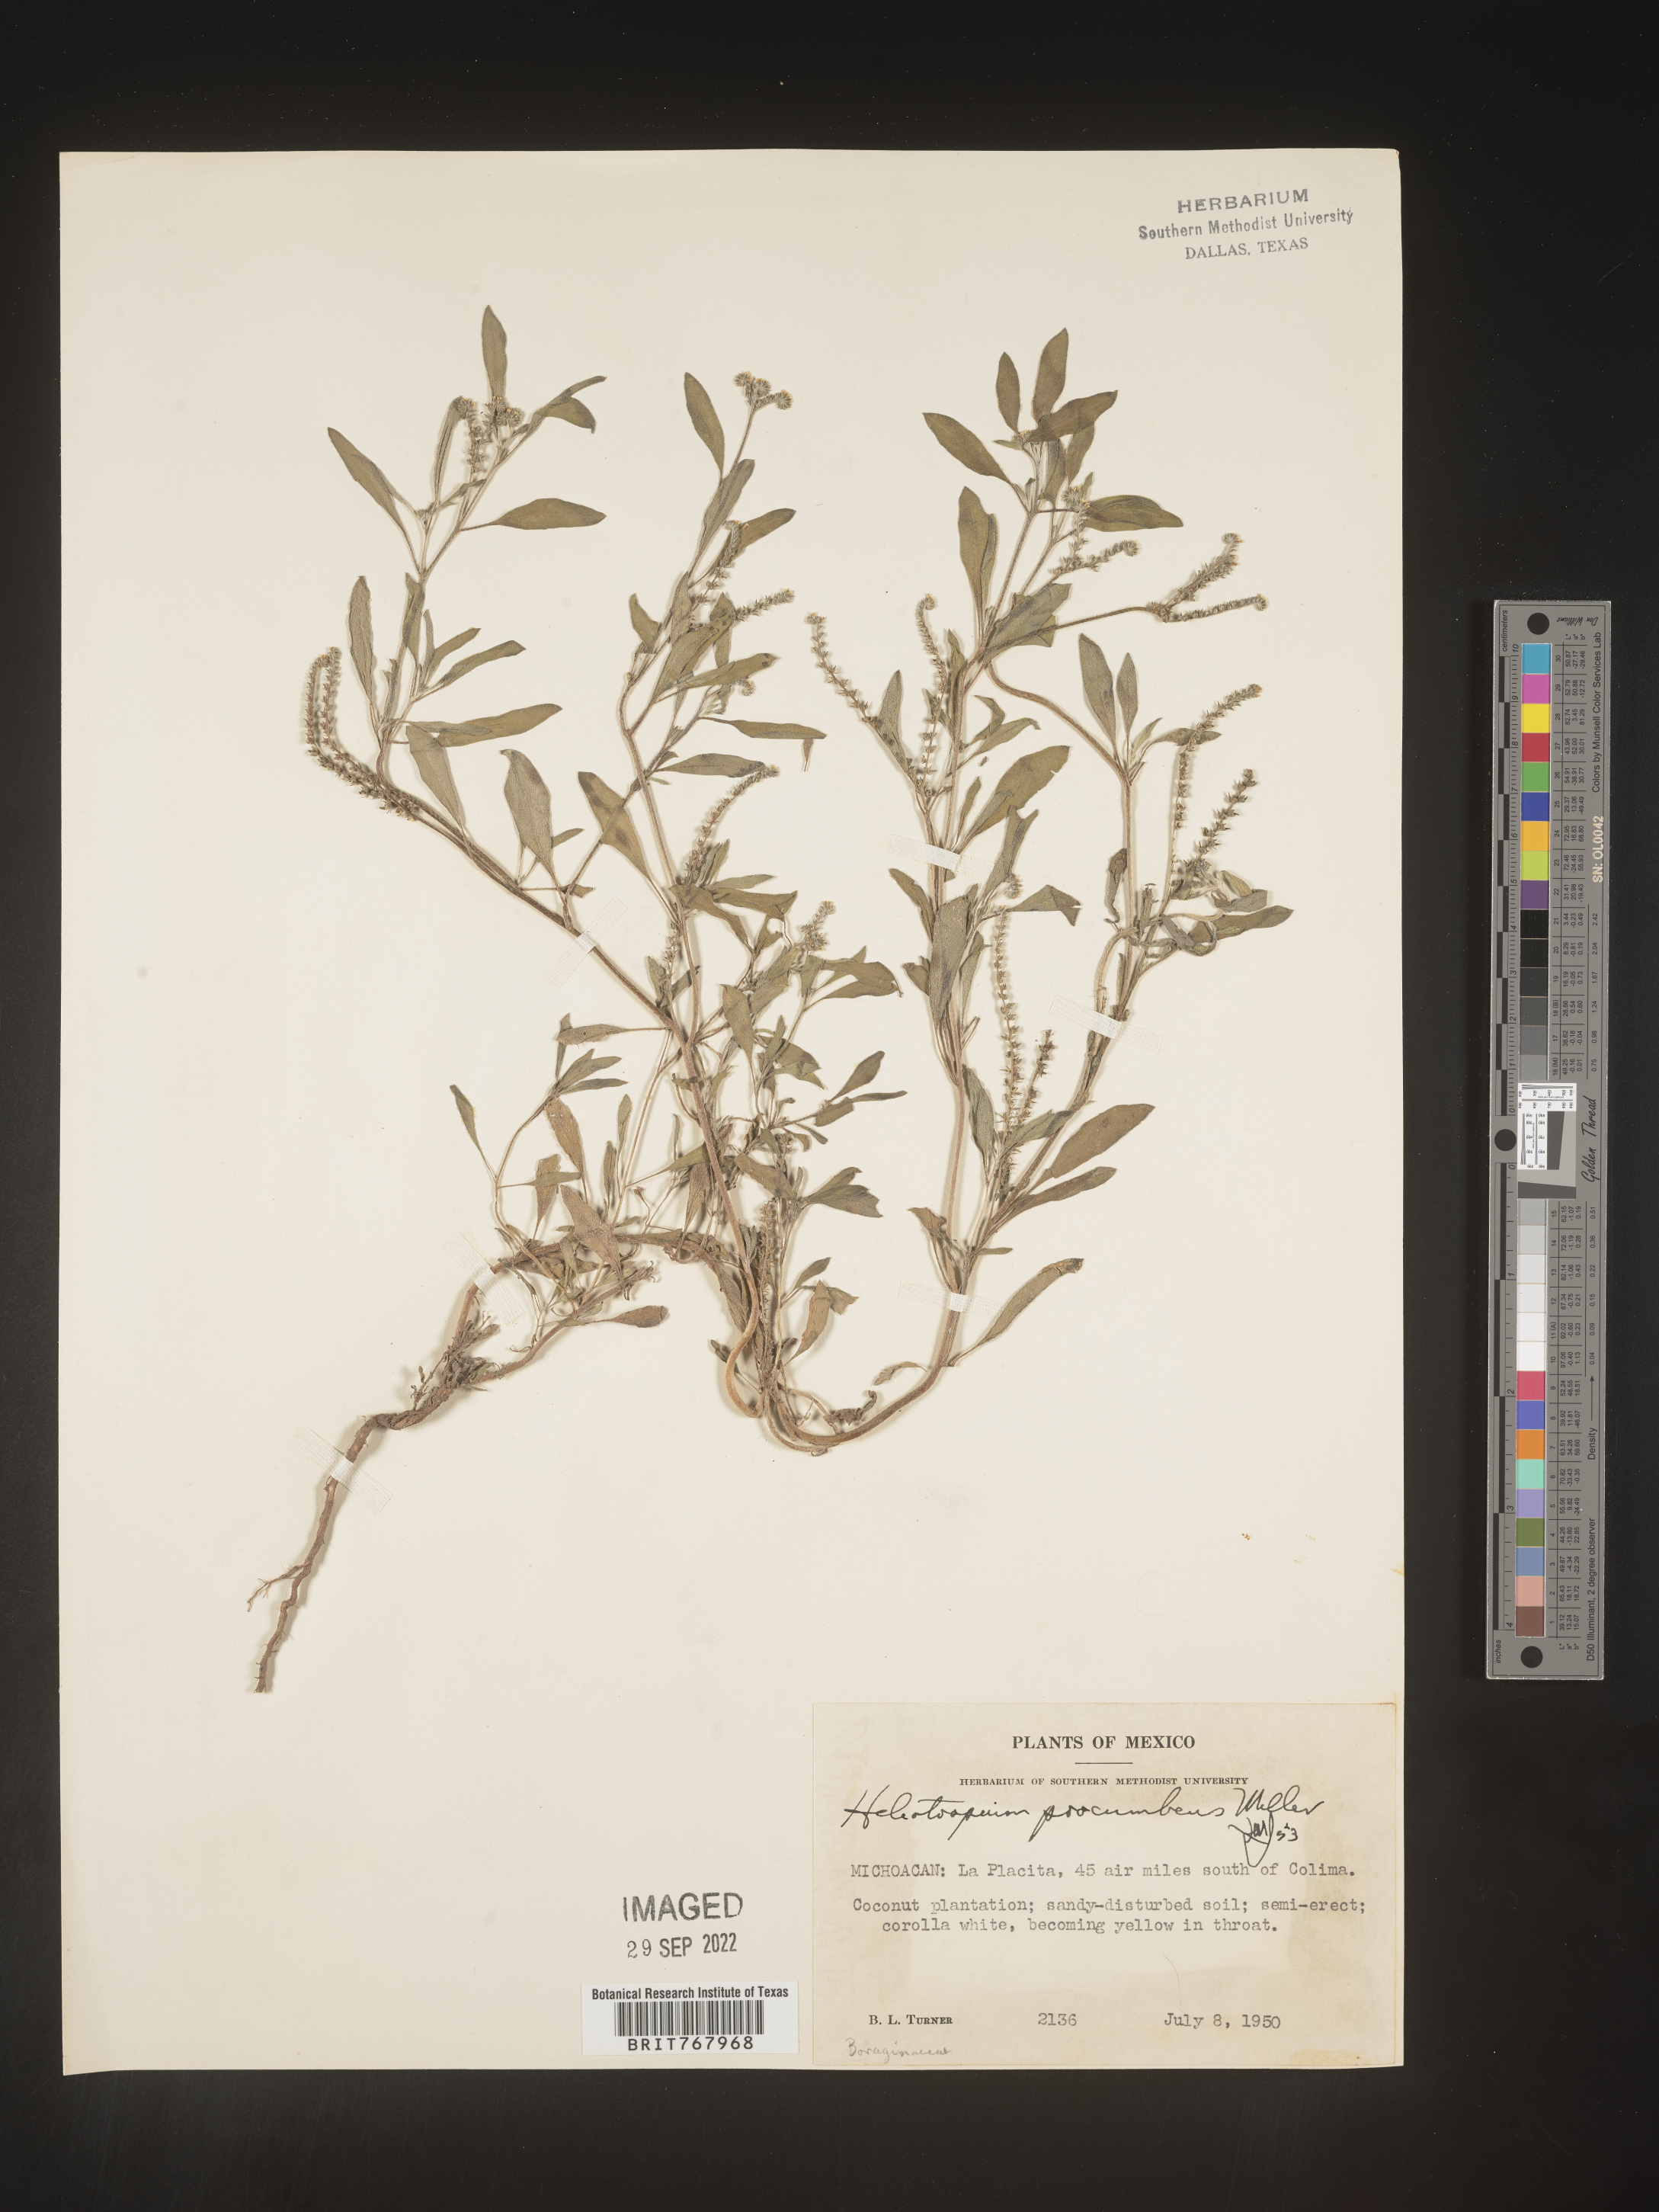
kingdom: Plantae
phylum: Tracheophyta
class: Magnoliopsida
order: Boraginales
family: Heliotropiaceae
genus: Heliotropium
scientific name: Heliotropium
